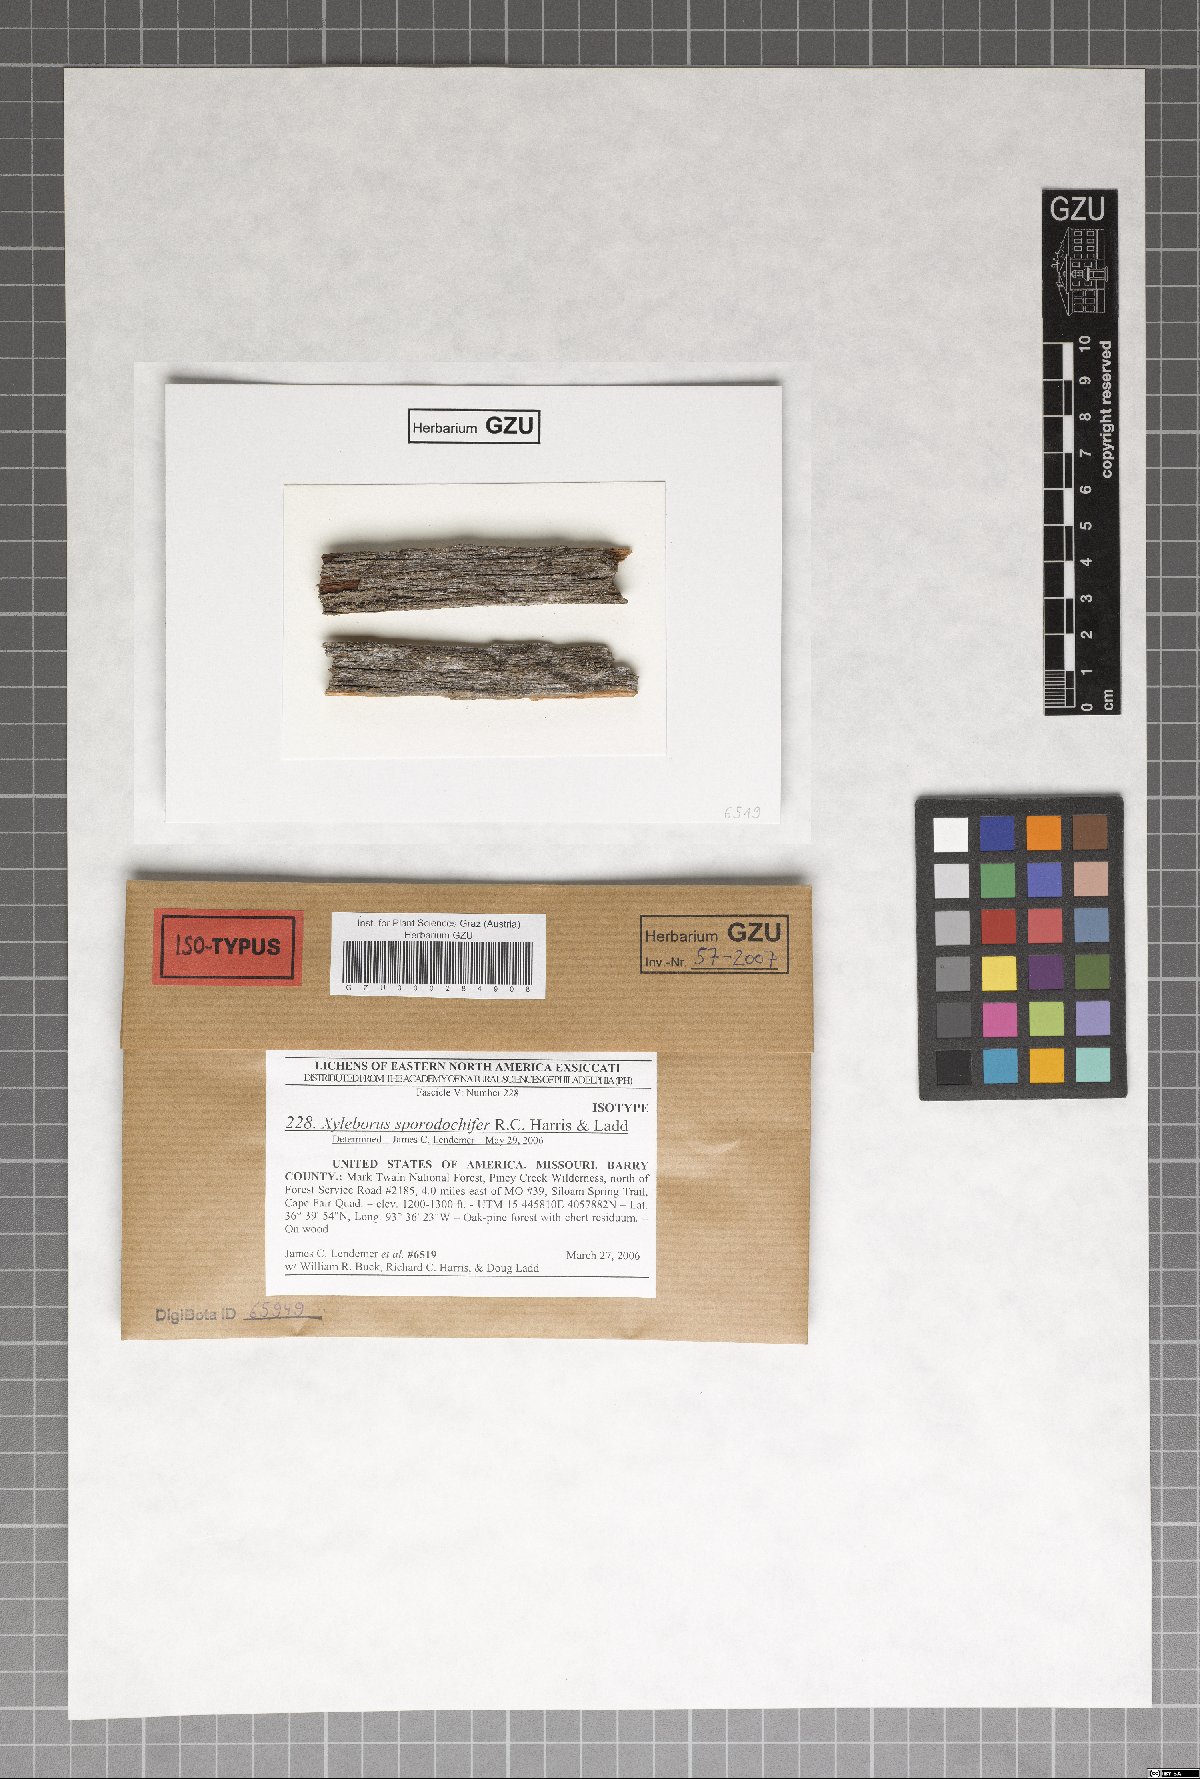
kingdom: Fungi
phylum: Ascomycota
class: Lecanoromycetes
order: Lecanorales
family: Stereocaulaceae
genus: Xyleborus
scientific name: Xyleborus sporodochifer
